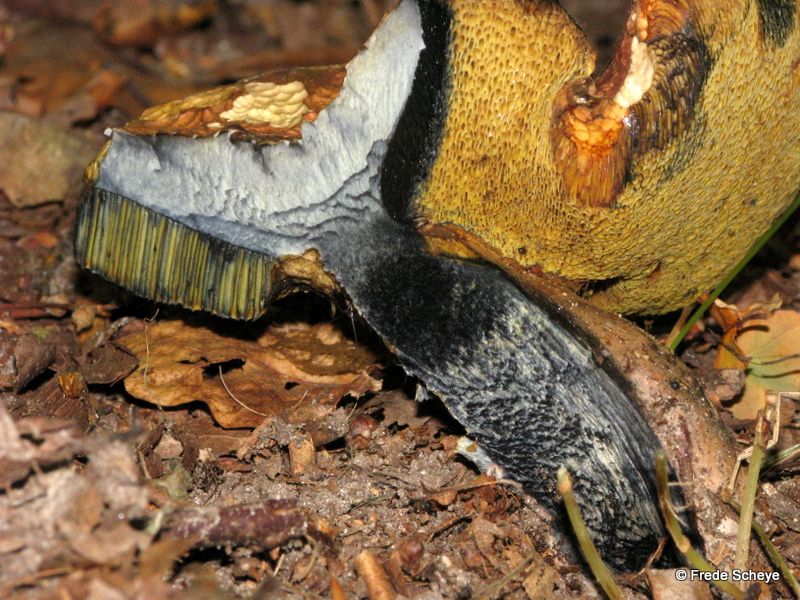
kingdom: Fungi
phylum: Basidiomycota
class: Agaricomycetes
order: Boletales
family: Boletaceae
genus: Cyanoboletus
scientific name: Cyanoboletus pulverulentus
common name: sortblånende rørhat
